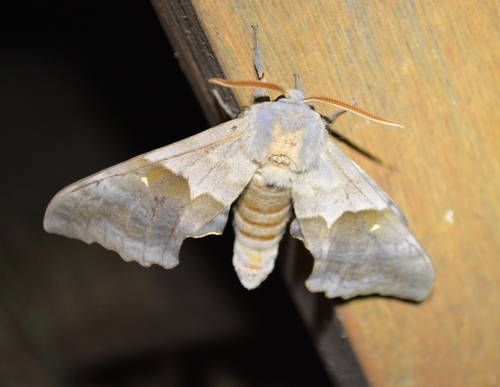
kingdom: Animalia
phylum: Arthropoda
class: Insecta
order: Lepidoptera
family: Sphingidae
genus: Pachysphinx
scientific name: Pachysphinx modesta
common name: Big poplar sphinx
